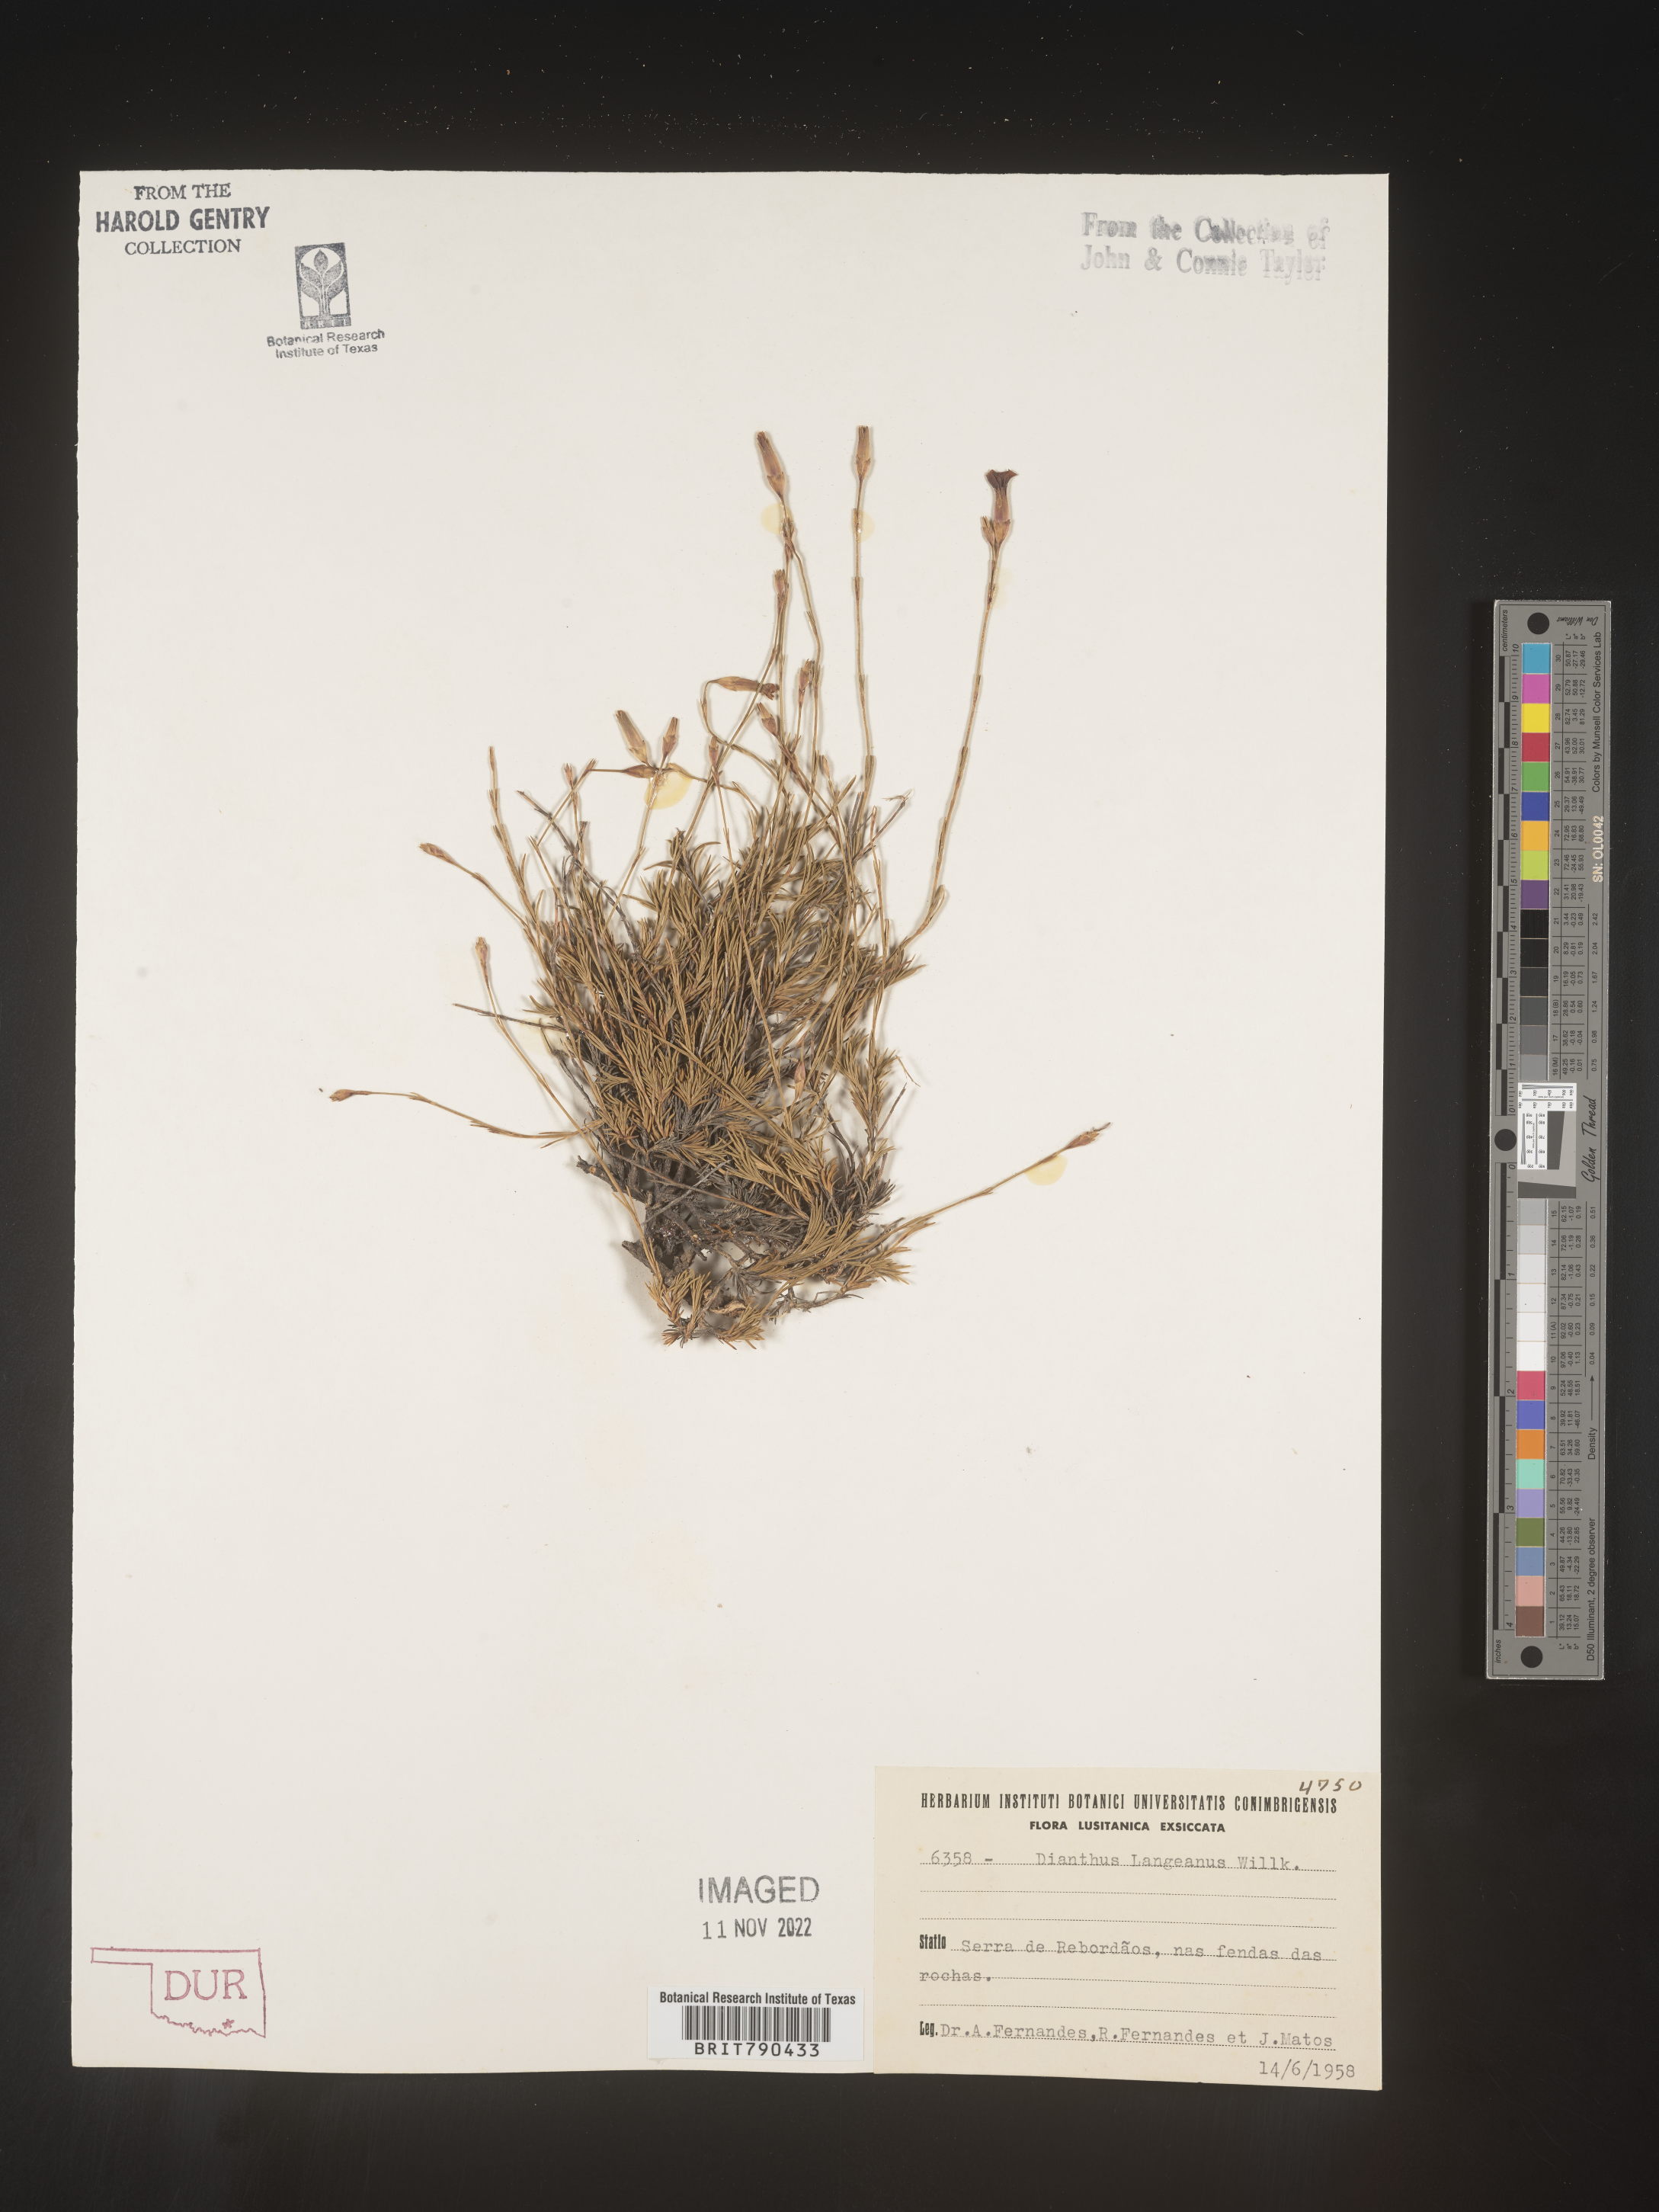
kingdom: Plantae
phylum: Tracheophyta
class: Magnoliopsida
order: Caryophyllales
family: Caryophyllaceae
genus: Dianthus
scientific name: Dianthus
